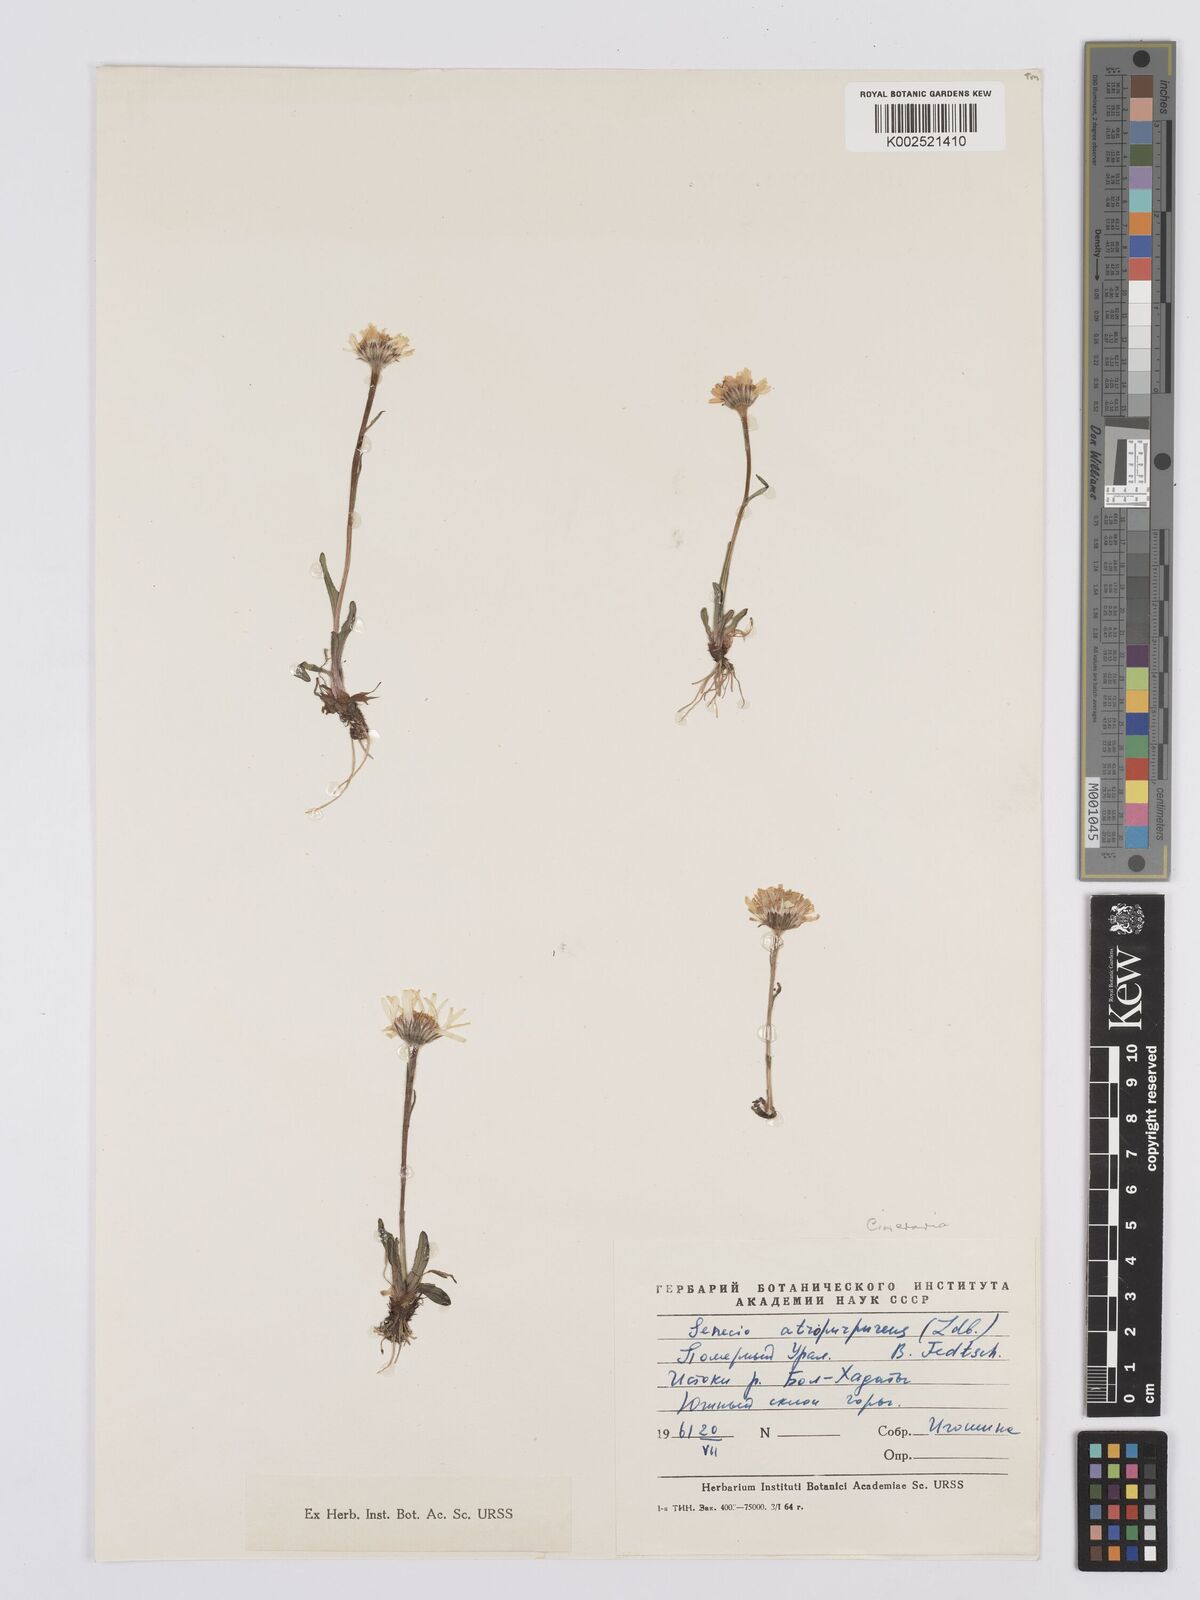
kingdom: Plantae
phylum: Tracheophyta
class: Magnoliopsida
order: Asterales
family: Asteraceae
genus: Tephroseris
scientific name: Tephroseris integrifolia
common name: Field fleawort
